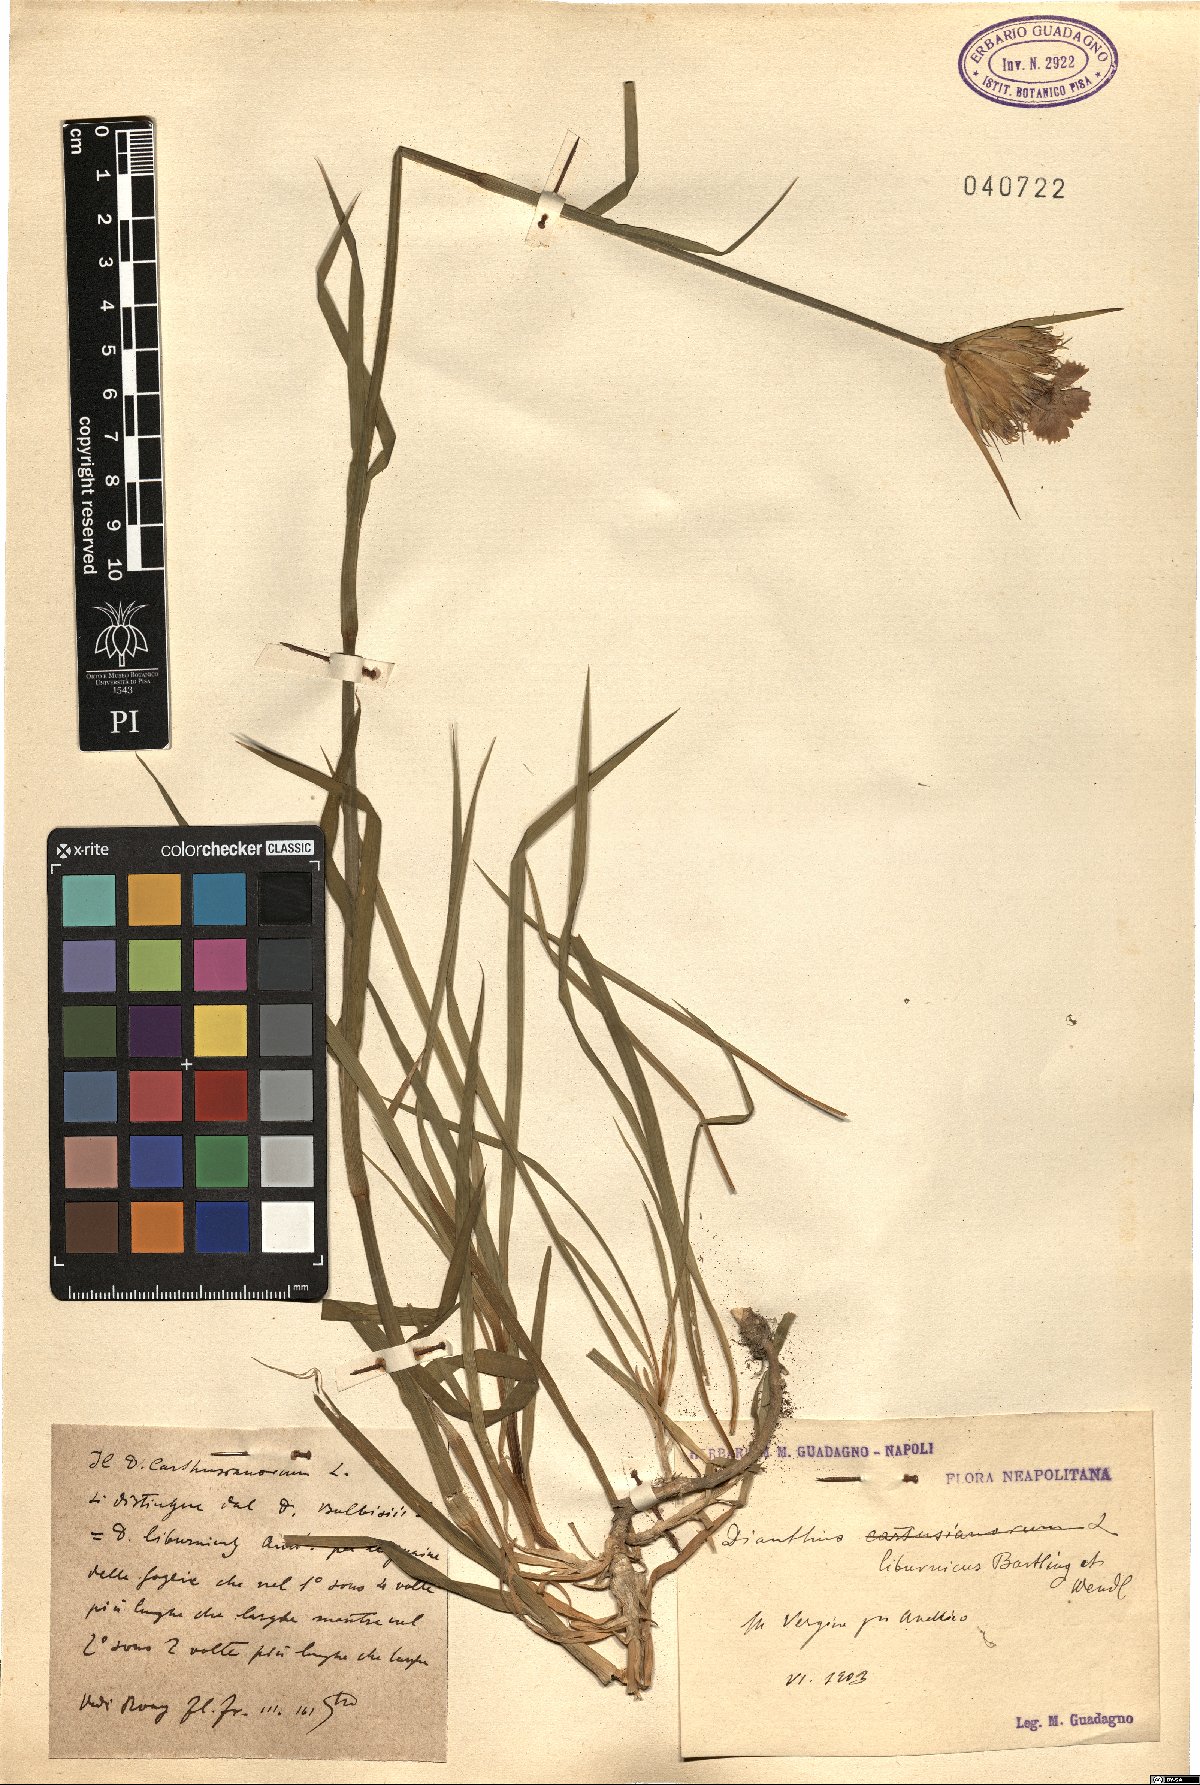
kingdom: Plantae
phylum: Tracheophyta
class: Magnoliopsida
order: Caryophyllales
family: Caryophyllaceae
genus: Dianthus
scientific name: Dianthus balbisii
